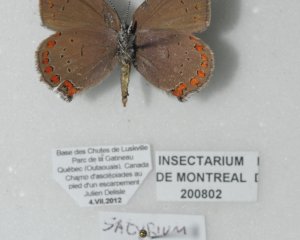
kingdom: Animalia
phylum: Arthropoda
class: Insecta
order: Lepidoptera
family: Lycaenidae
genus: Harkenclenus
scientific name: Harkenclenus titus
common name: Coral Hairstreak
